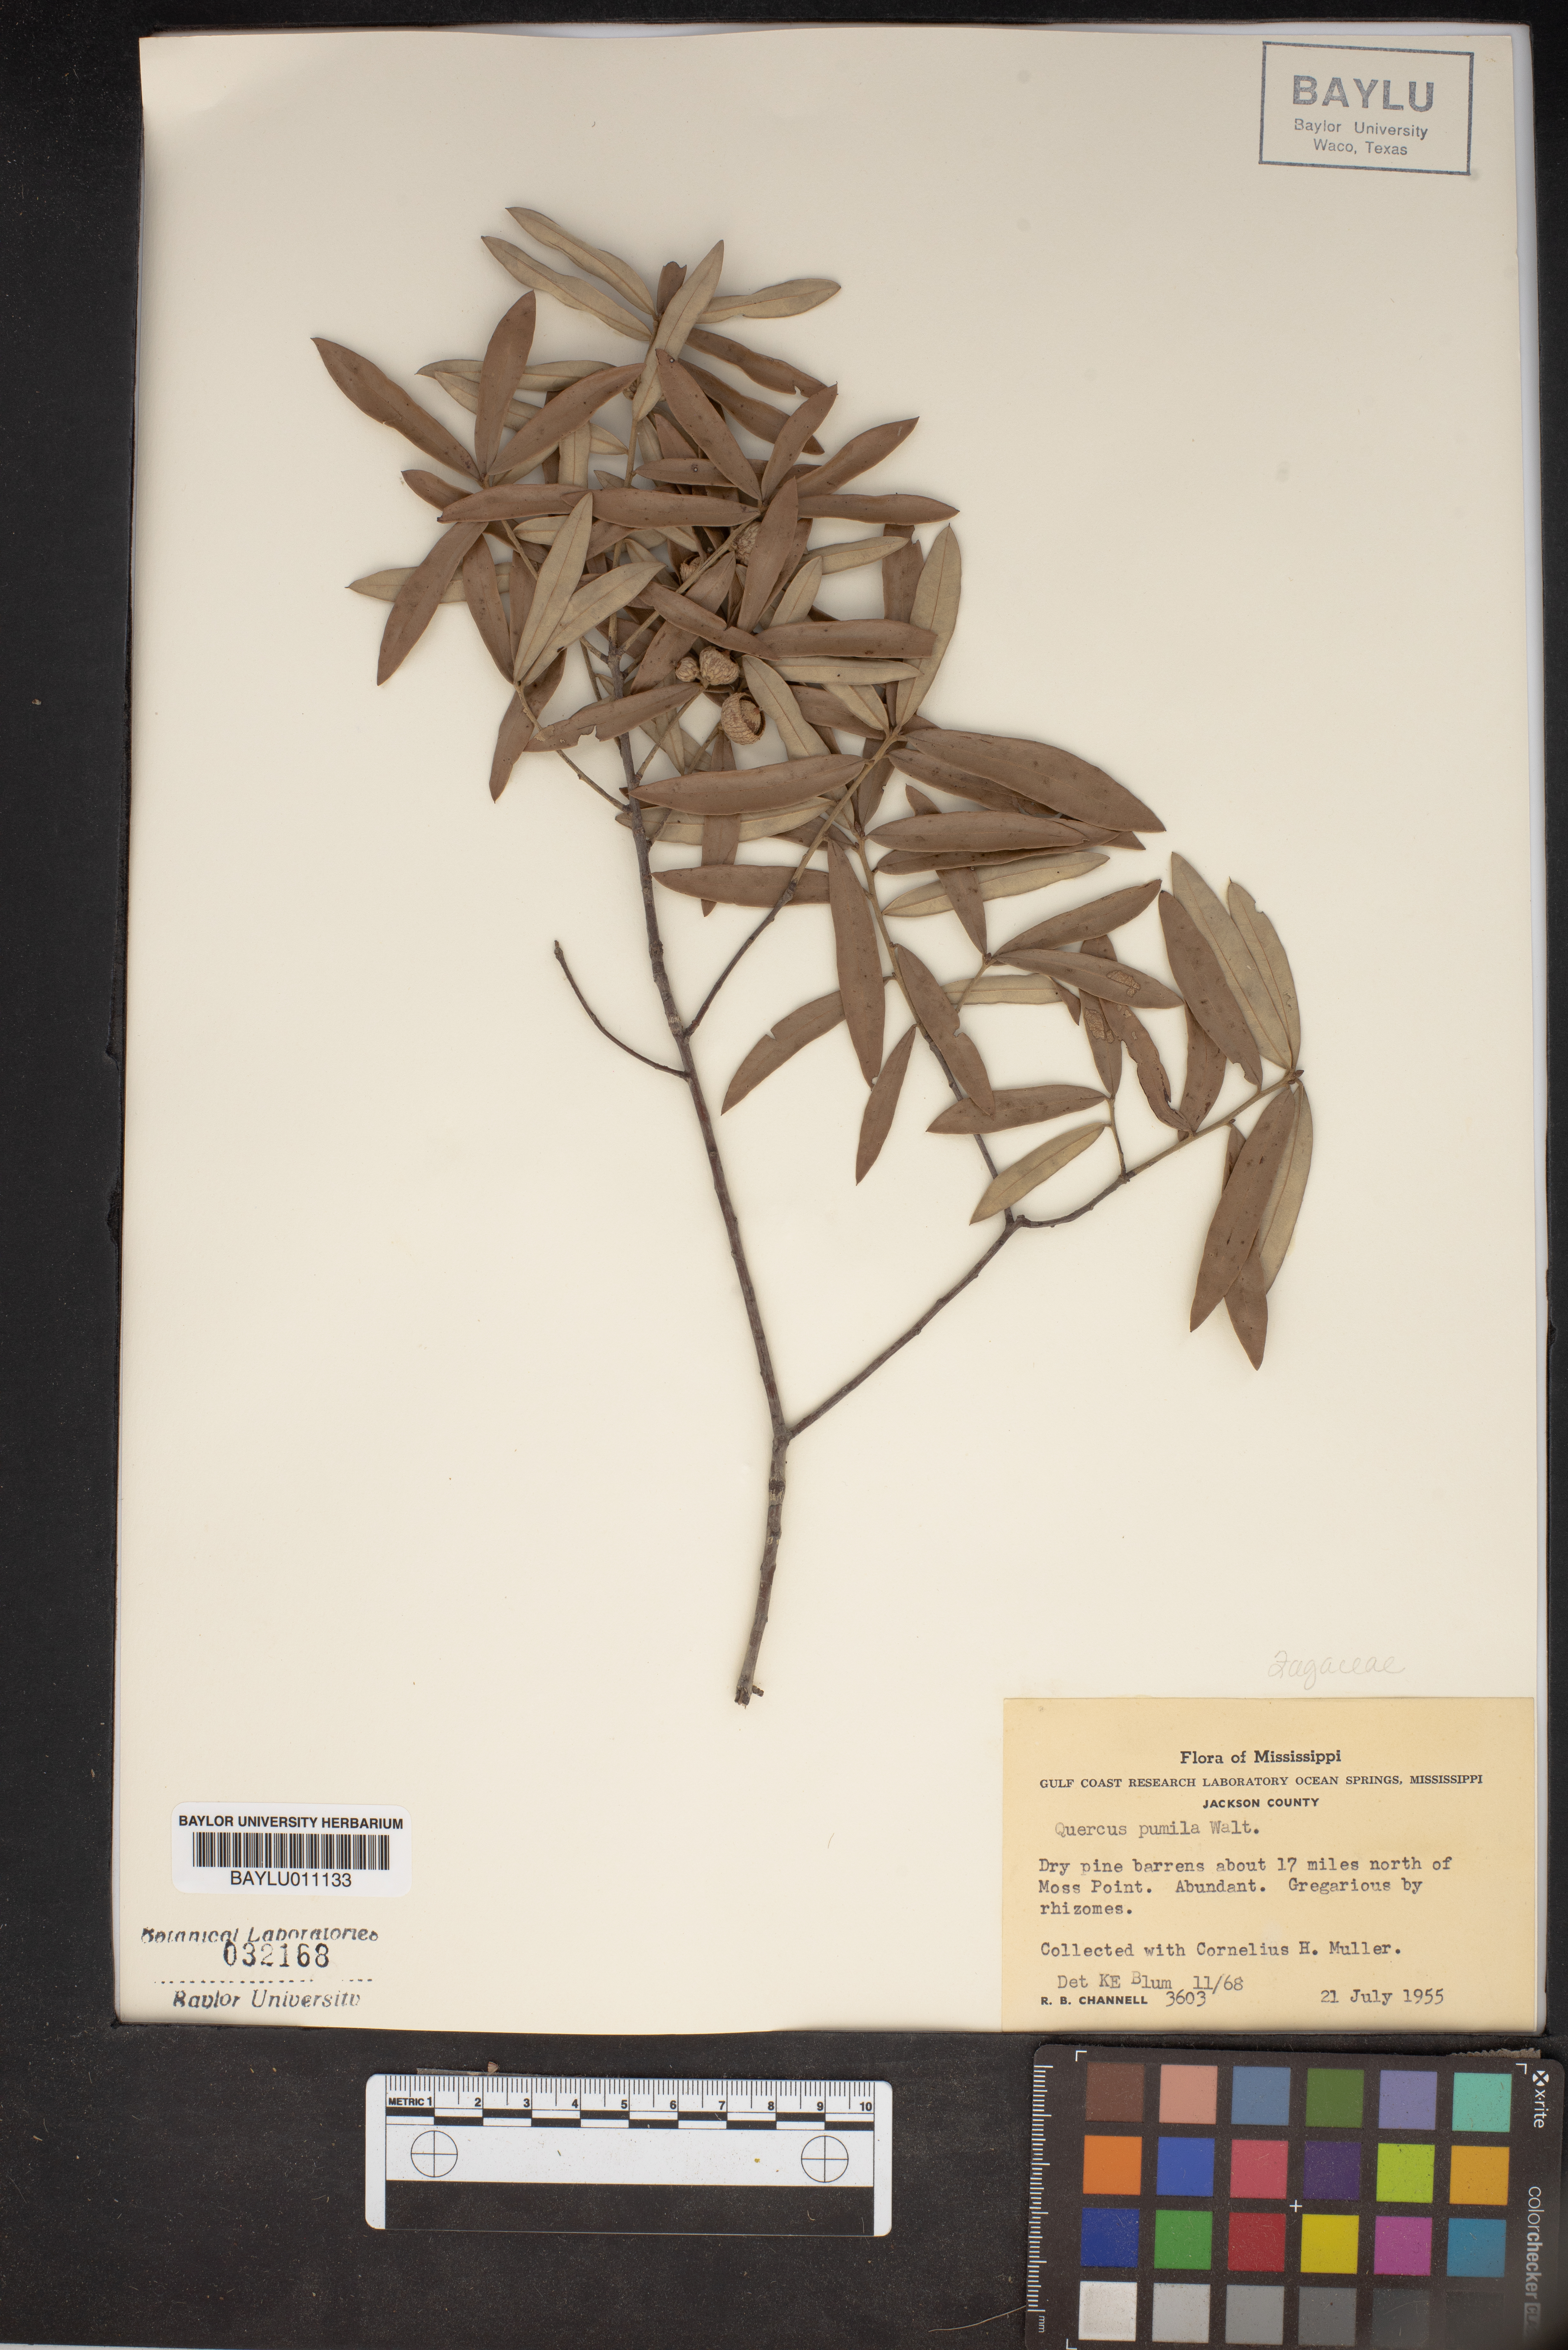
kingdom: Plantae
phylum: Tracheophyta
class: Magnoliopsida
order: Fagales
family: Fagaceae
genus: Quercus
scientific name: Quercus pumila
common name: Runner oak
